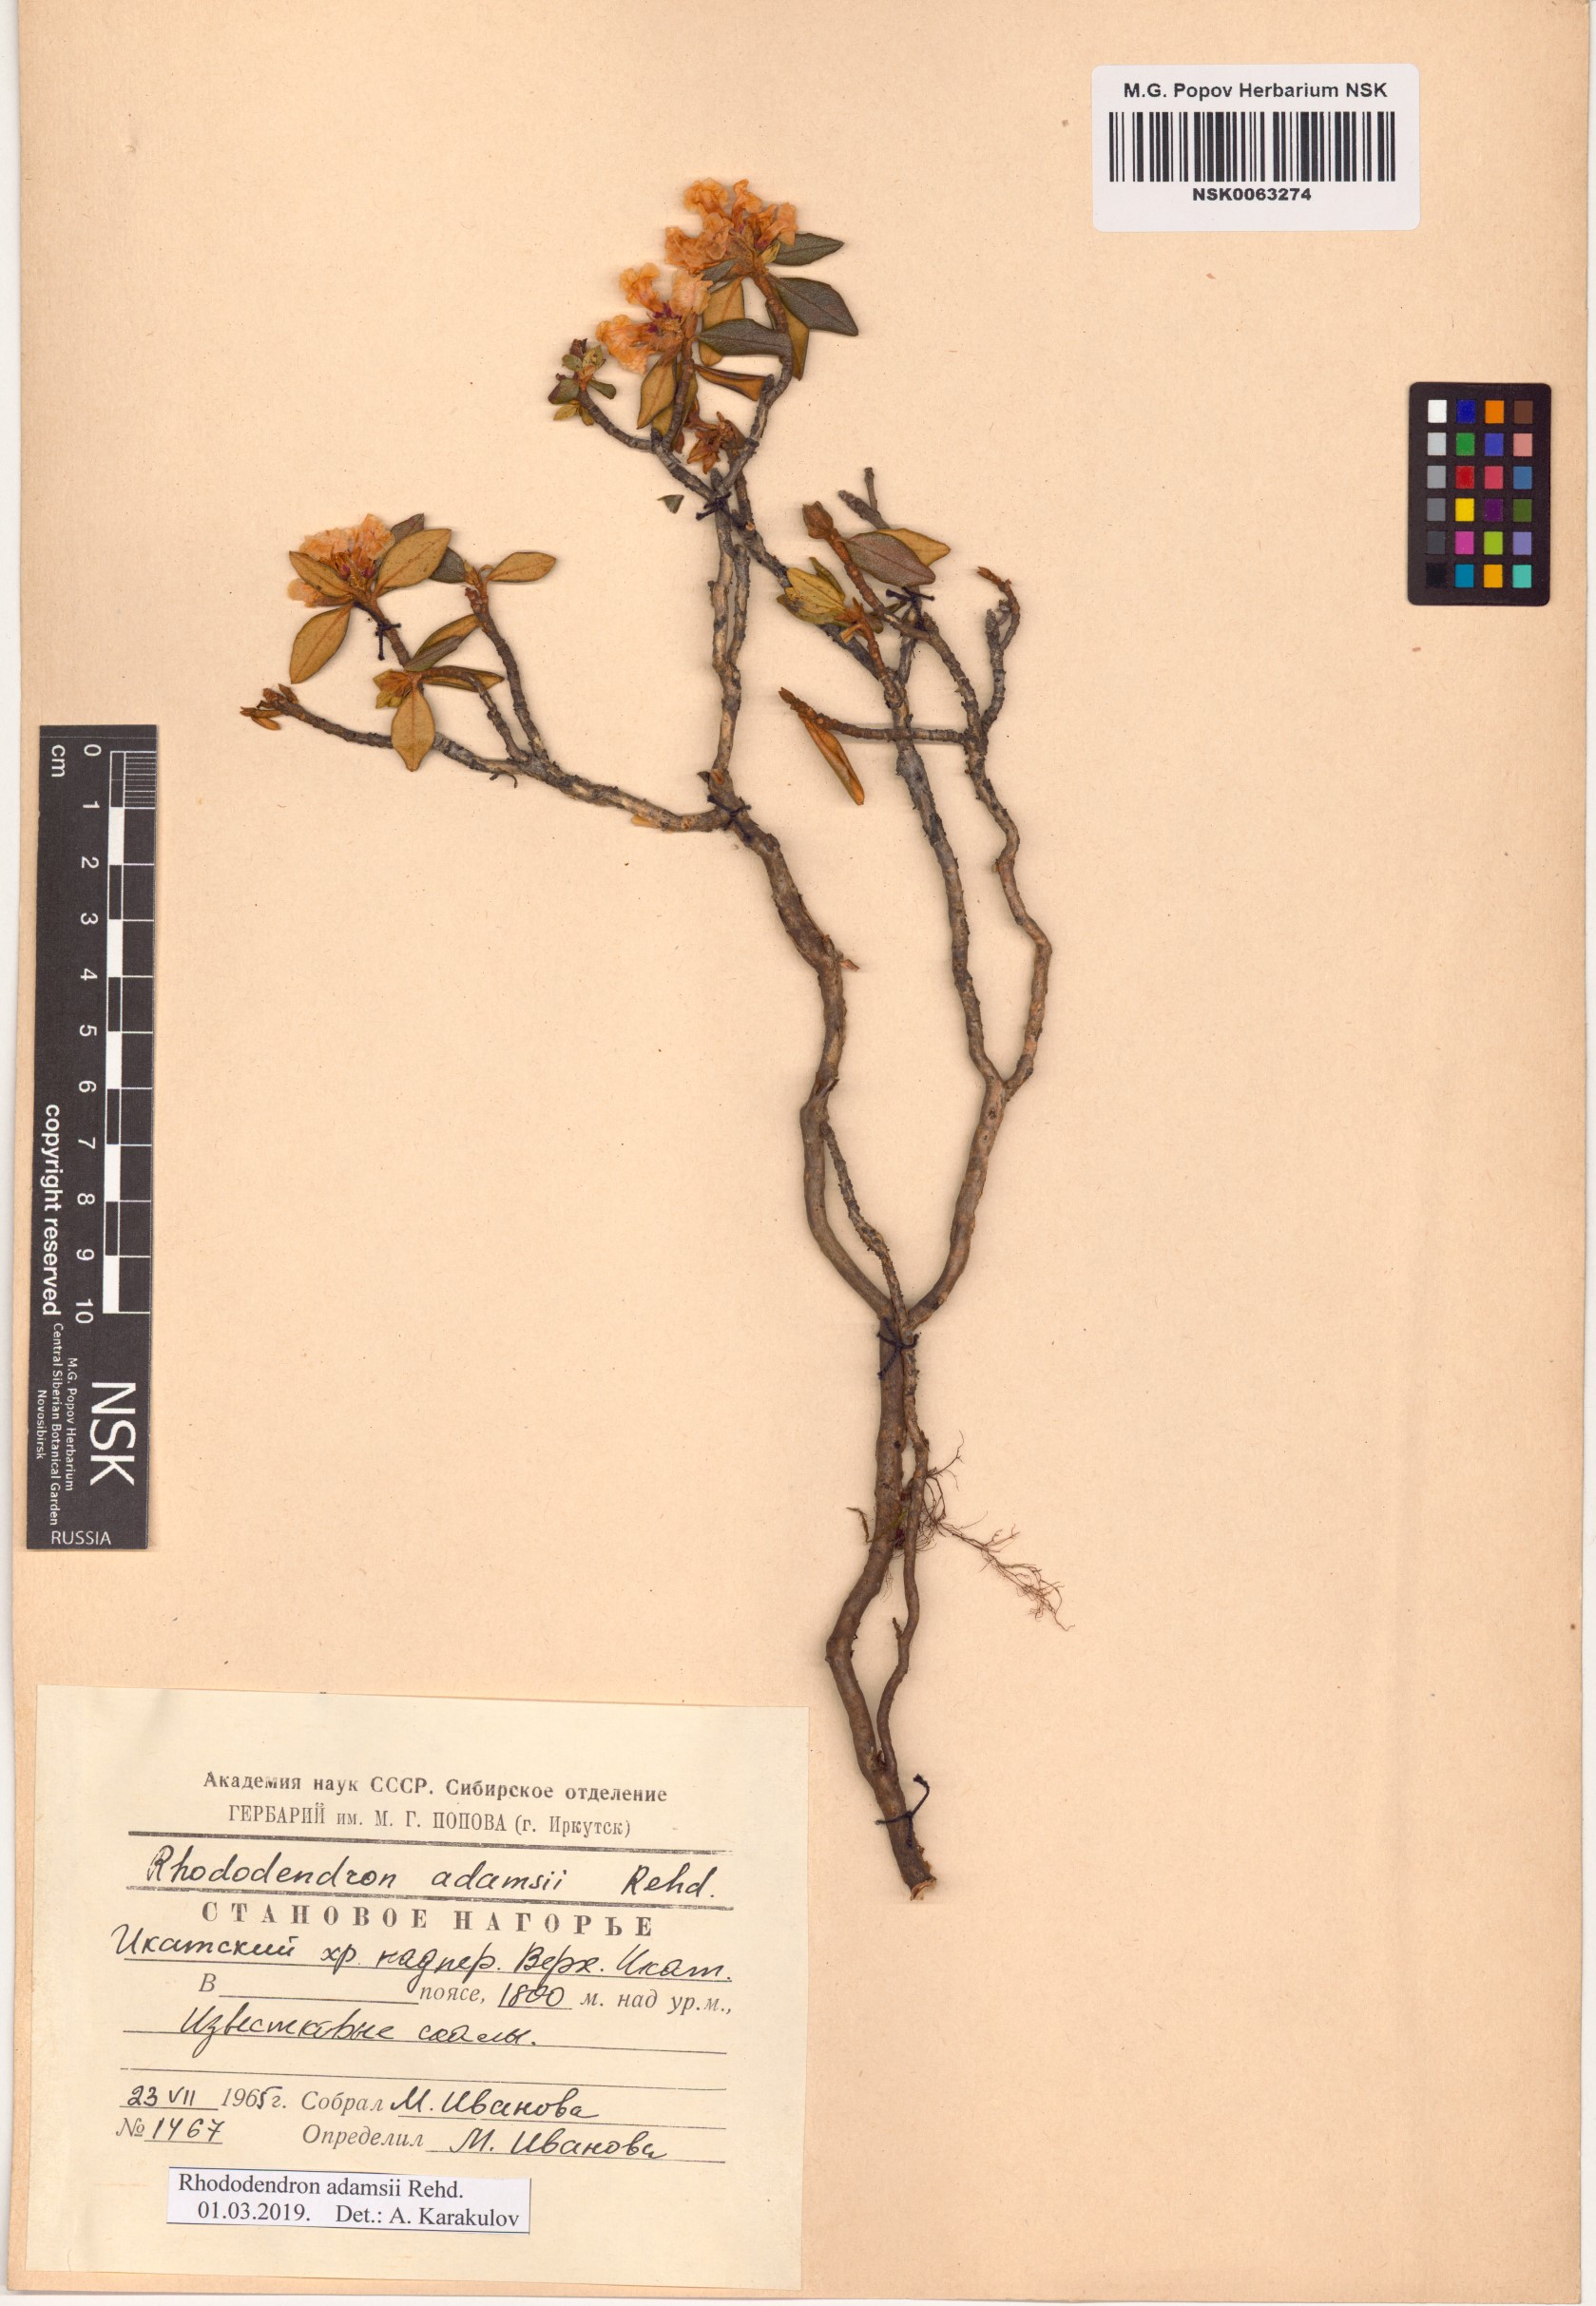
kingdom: Plantae
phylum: Tracheophyta
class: Magnoliopsida
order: Ericales
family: Ericaceae
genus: Rhododendron
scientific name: Rhododendron adamsii
